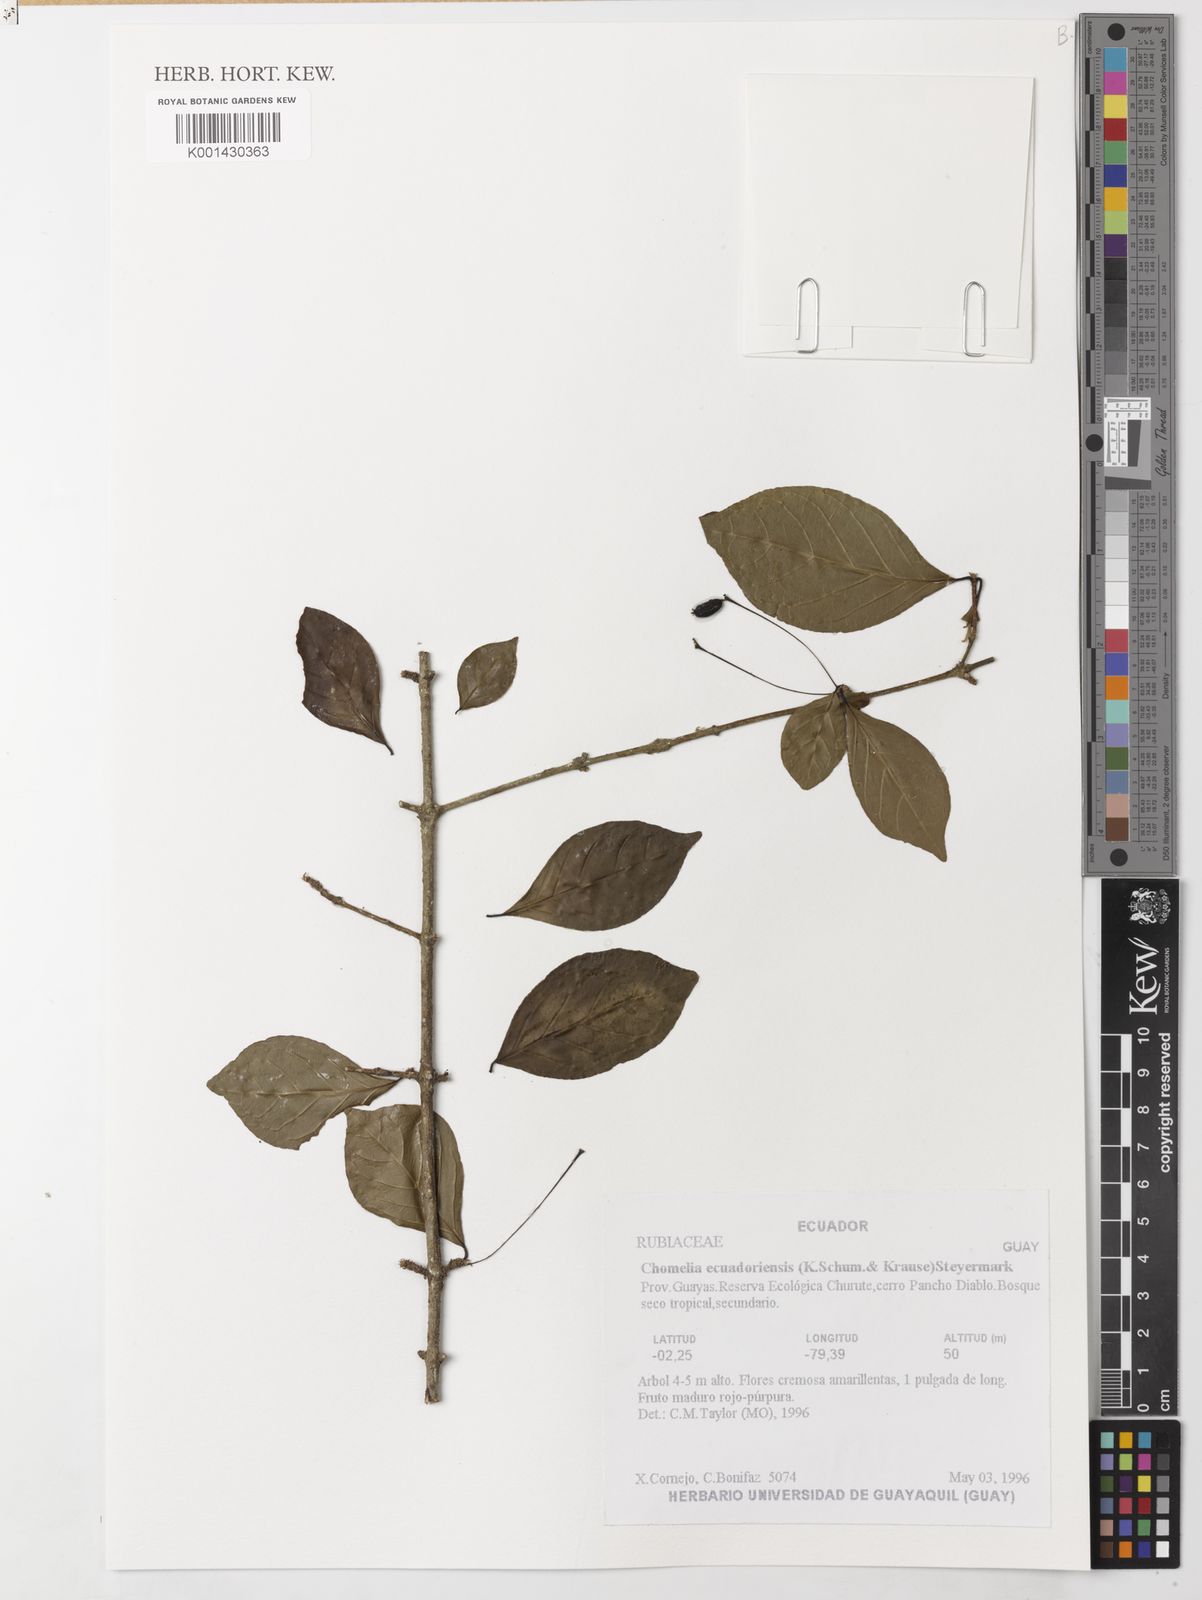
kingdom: Plantae
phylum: Tracheophyta
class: Magnoliopsida
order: Gentianales
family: Rubiaceae
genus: Chomelia
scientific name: Chomelia ecuadorensis
